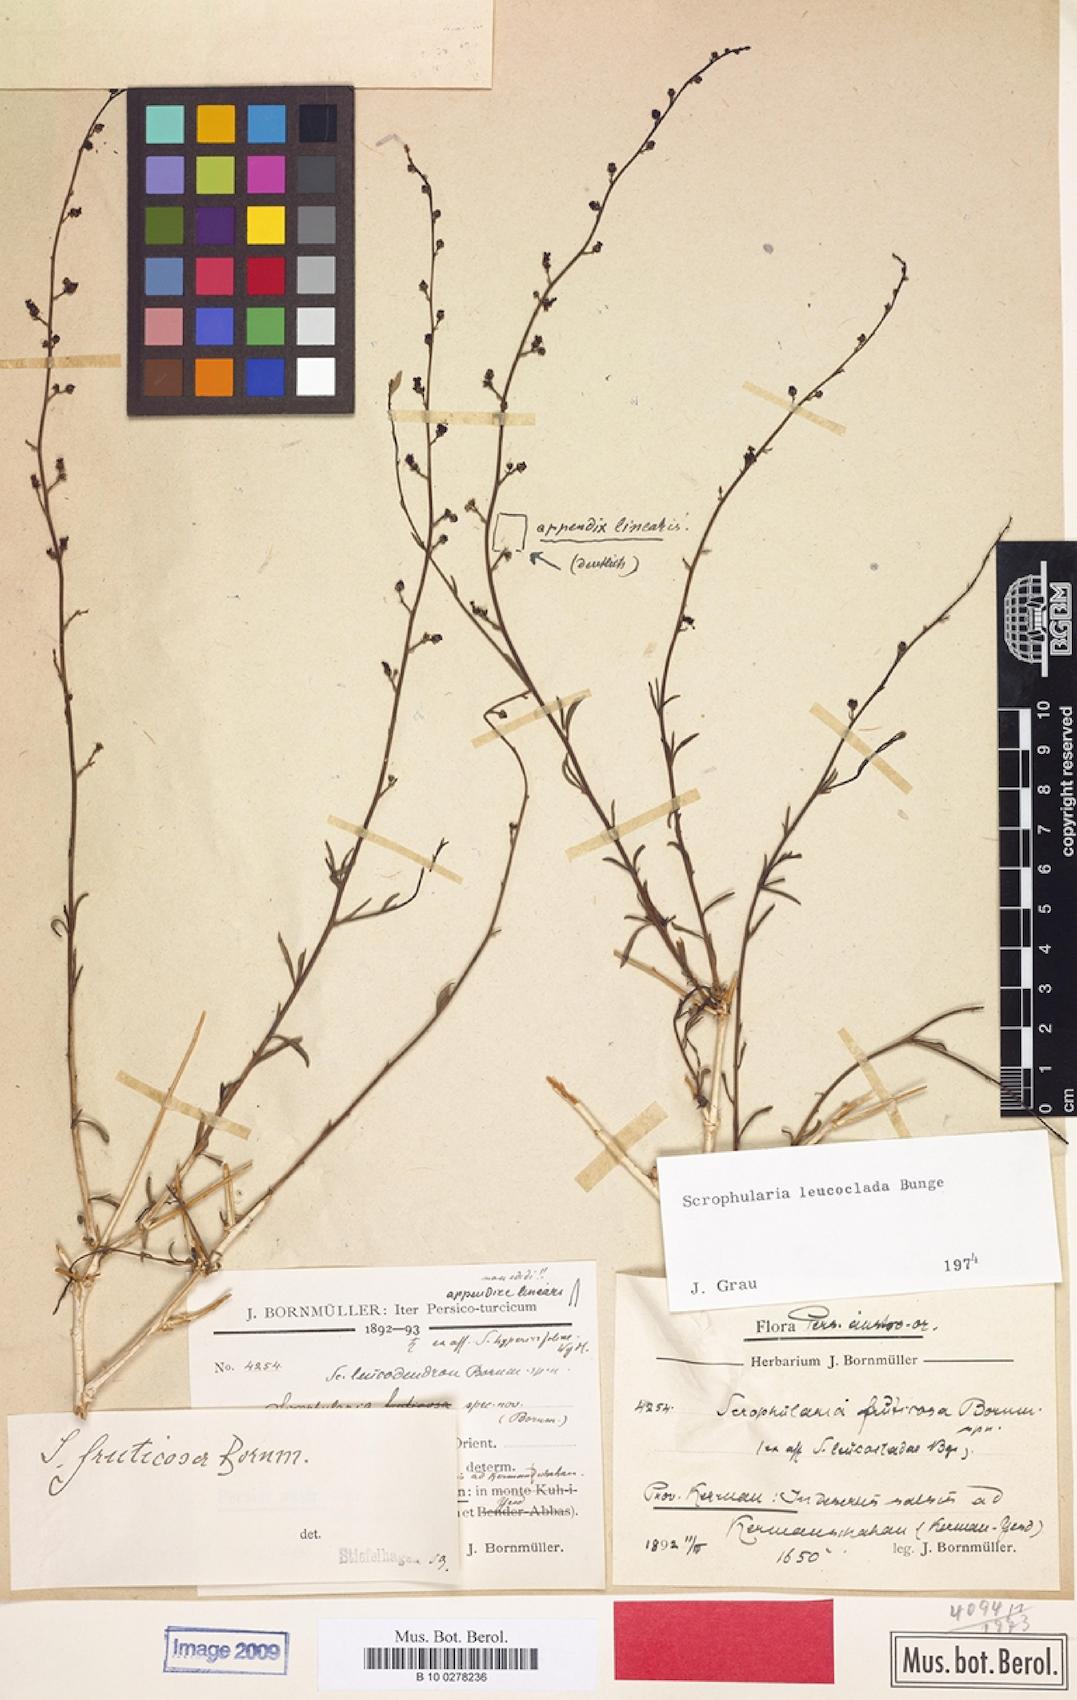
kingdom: Plantae
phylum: Tracheophyta
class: Magnoliopsida
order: Lamiales
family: Scrophulariaceae
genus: Scrophularia
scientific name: Scrophularia leucoclada
